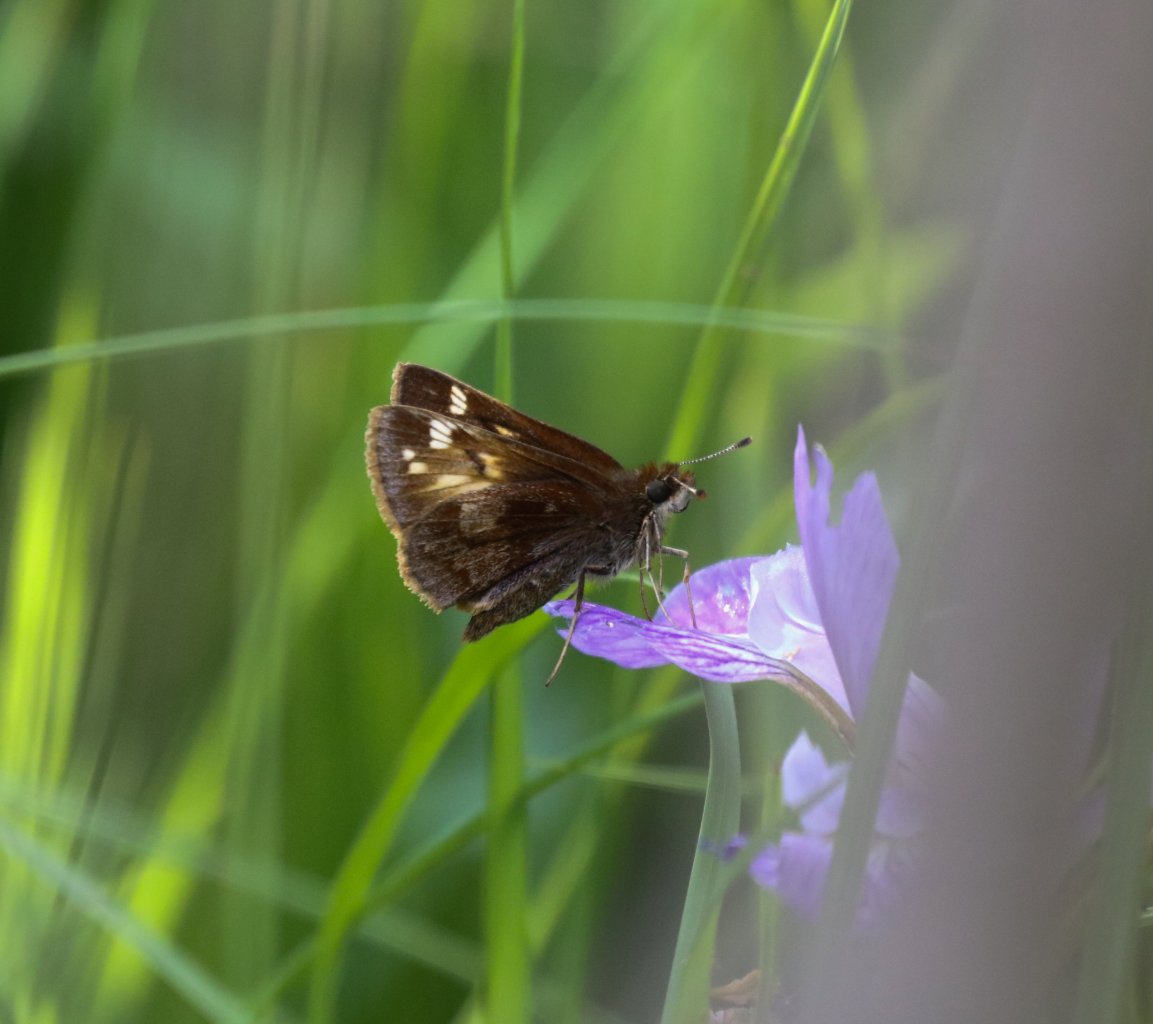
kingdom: Animalia
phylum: Arthropoda
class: Insecta
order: Lepidoptera
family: Hesperiidae
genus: Lon
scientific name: Lon hobomok
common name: Hobomok Skipper
